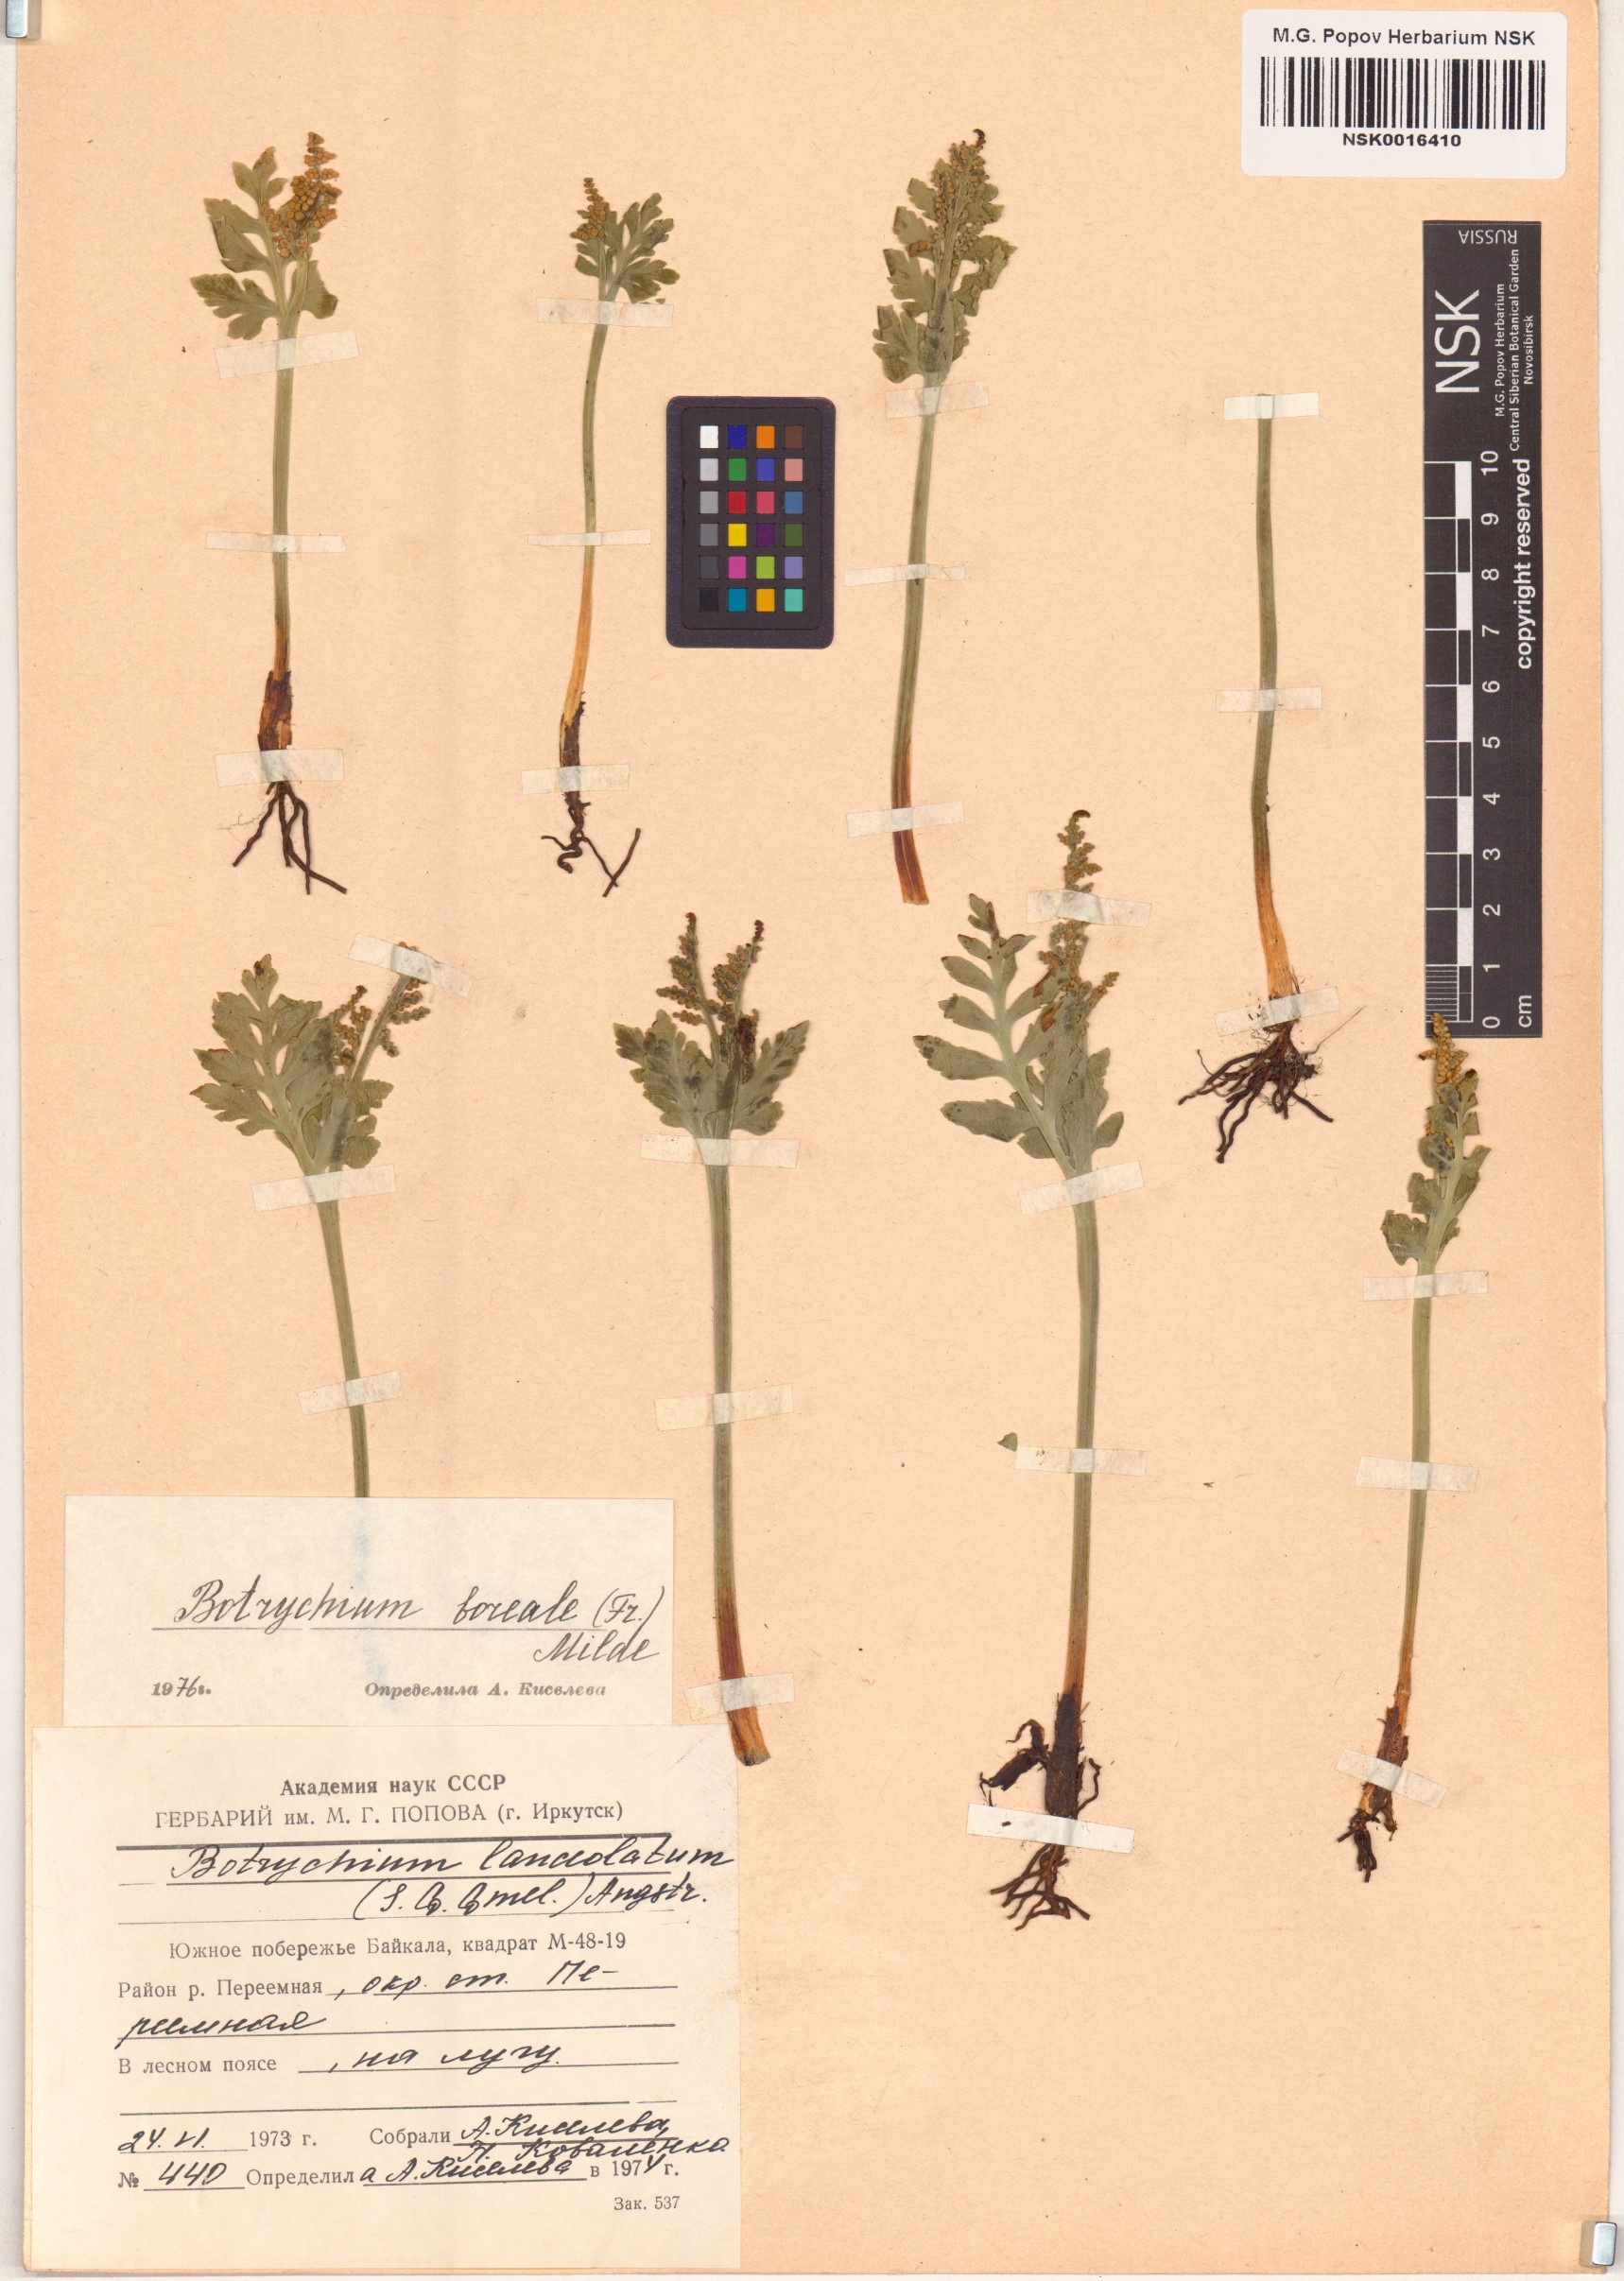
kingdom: Plantae
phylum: Tracheophyta
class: Polypodiopsida
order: Ophioglossales
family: Ophioglossaceae
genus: Botrychium
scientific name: Botrychium boreale
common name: Boreal moonwort
